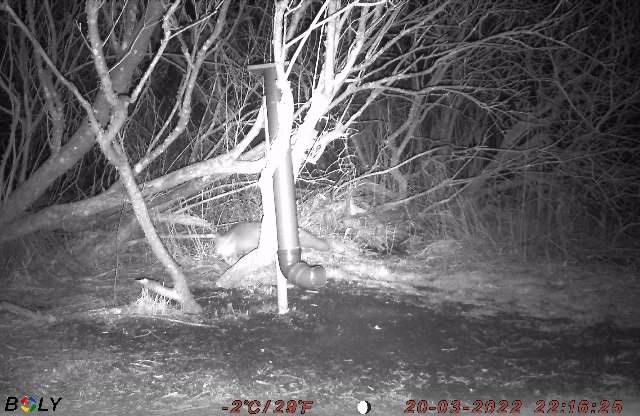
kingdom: Animalia
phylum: Chordata
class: Mammalia
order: Carnivora
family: Canidae
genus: Vulpes
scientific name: Vulpes vulpes
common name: Ræv
